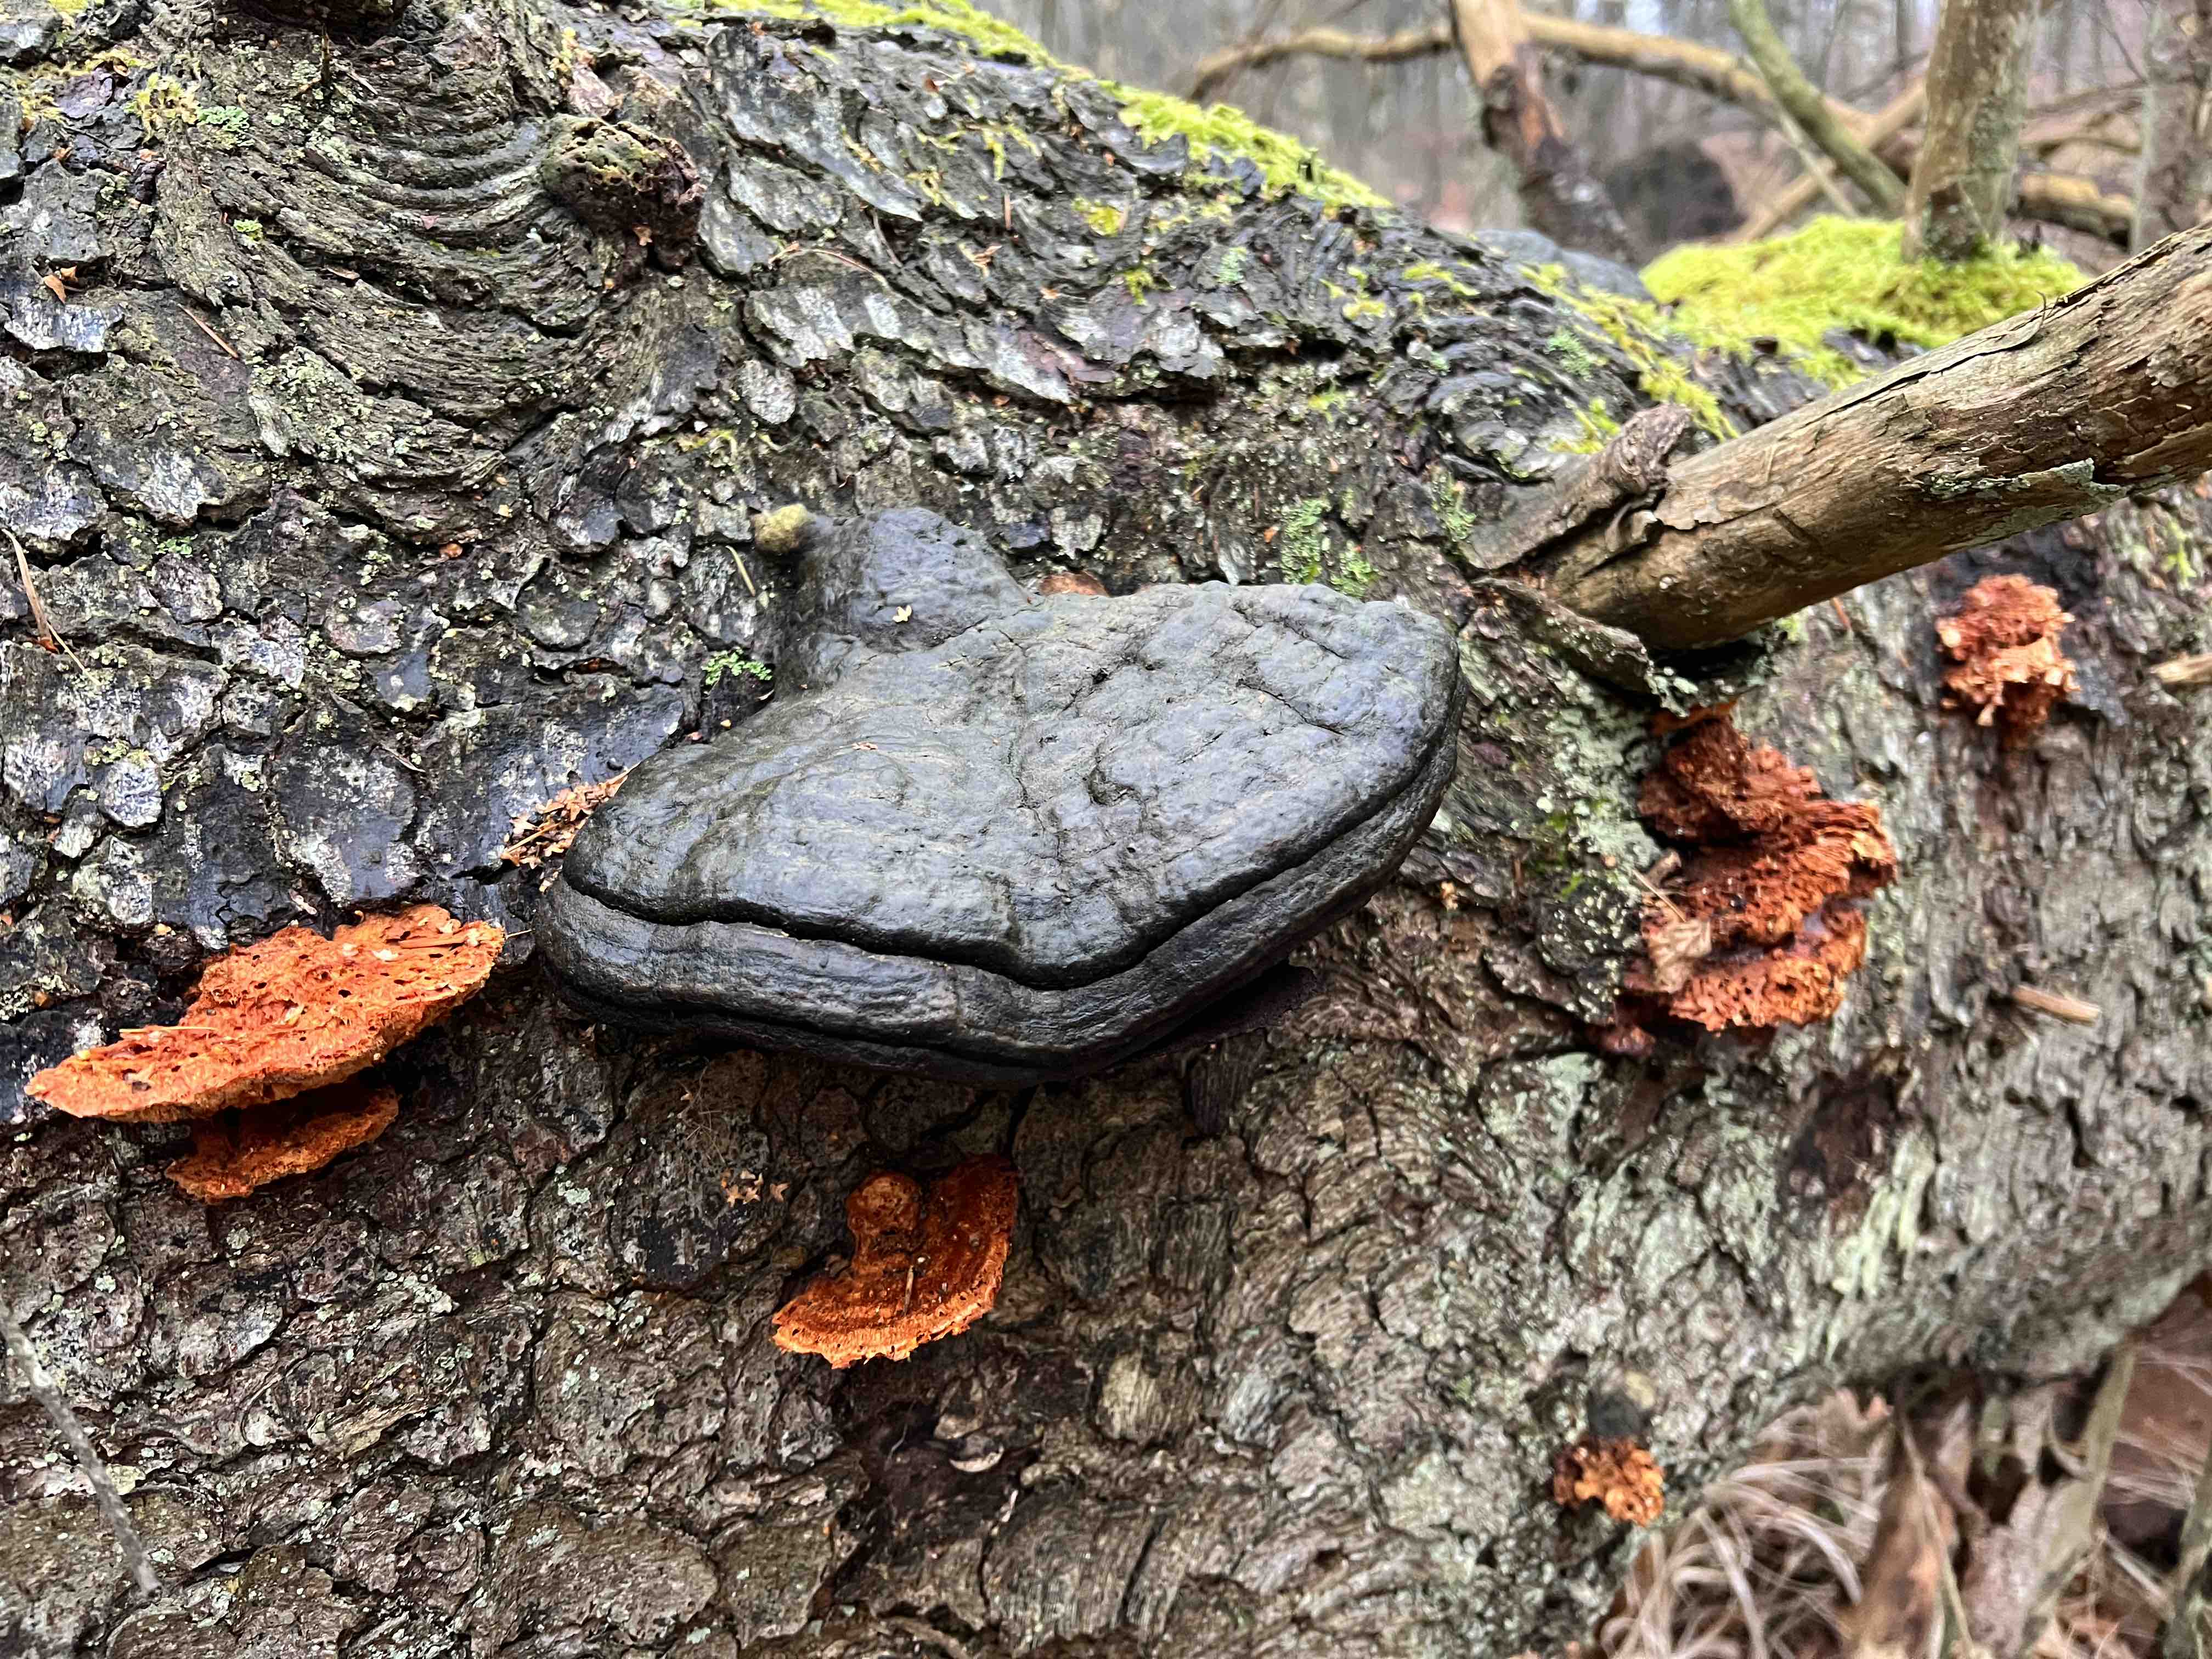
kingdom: Fungi
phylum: Basidiomycota
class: Agaricomycetes
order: Polyporales
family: Pycnoporellaceae
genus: Pycnoporellus
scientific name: Pycnoporellus
